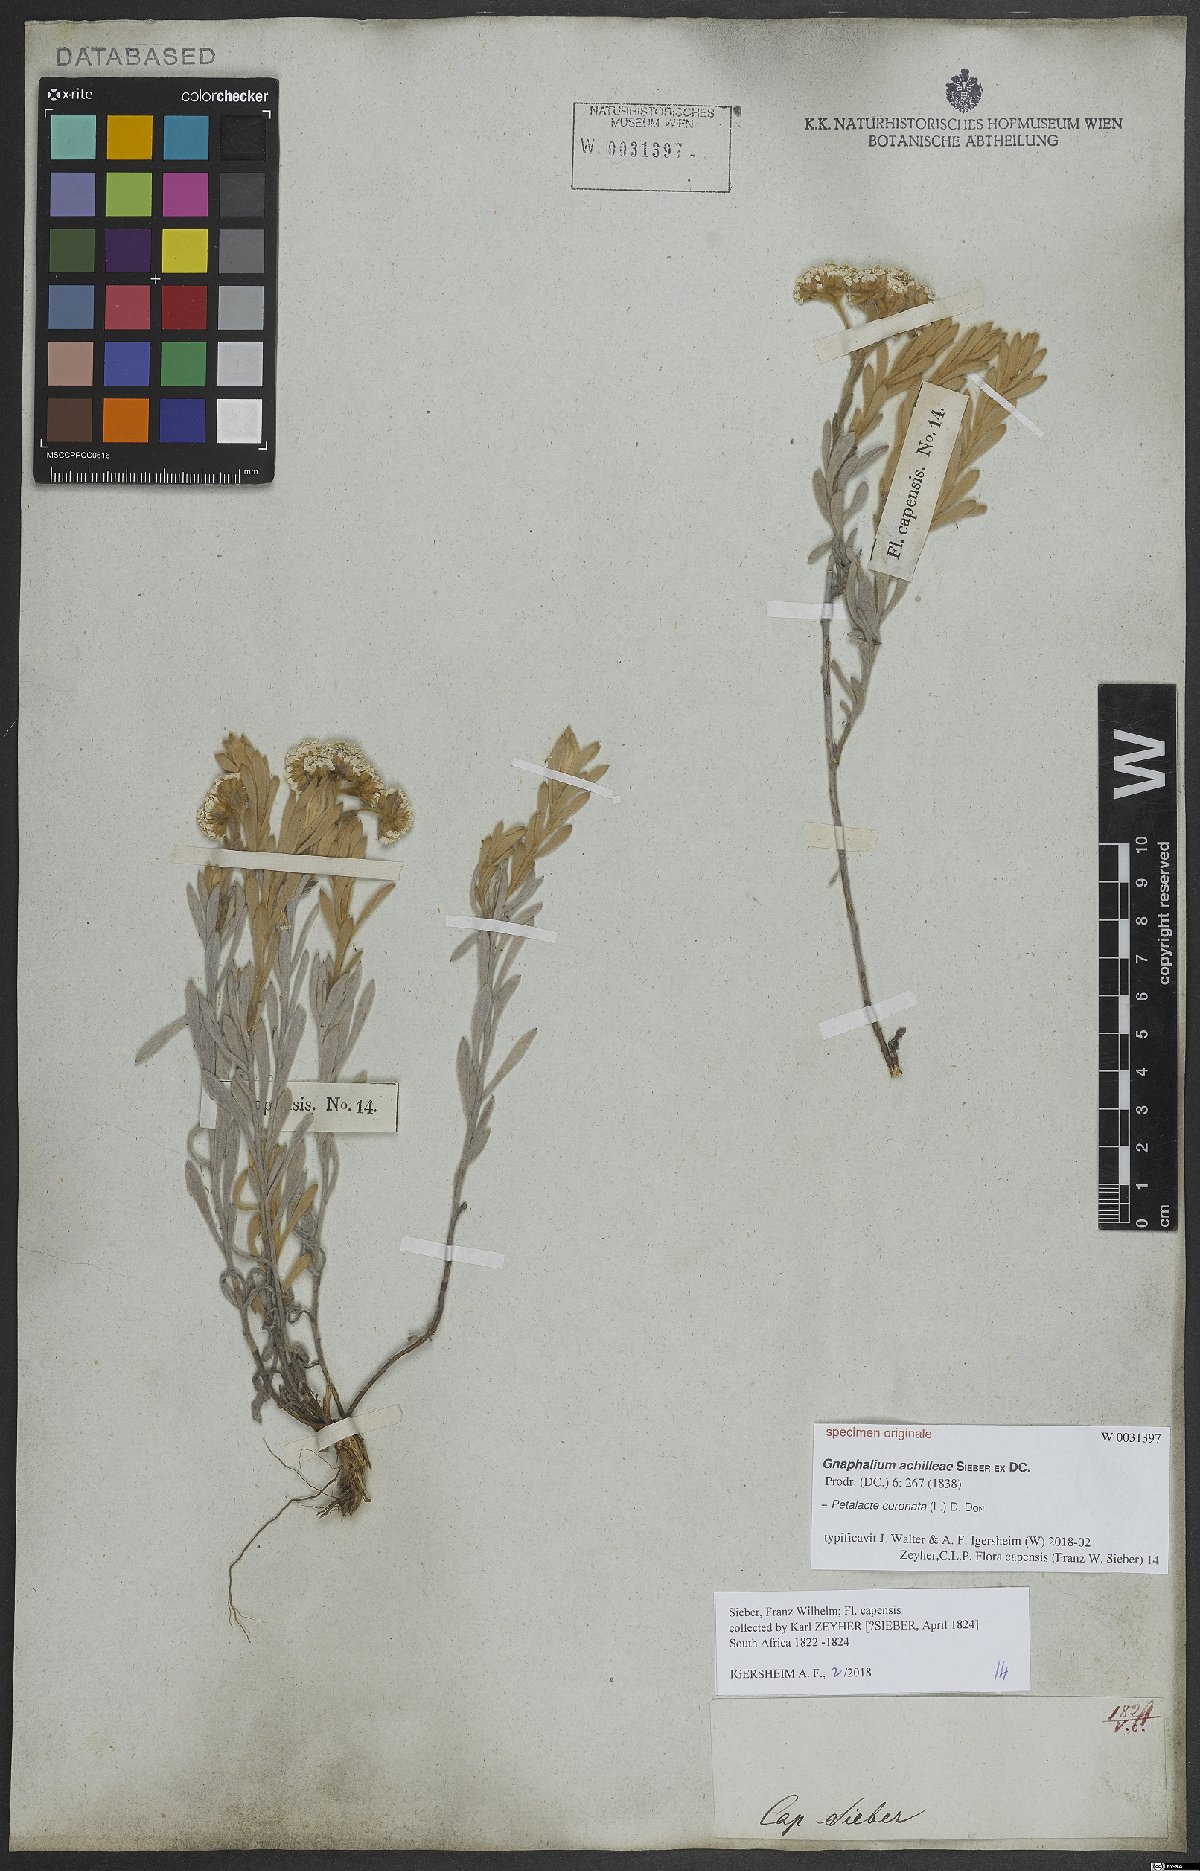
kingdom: Plantae
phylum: Tracheophyta
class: Magnoliopsida
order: Asterales
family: Asteraceae
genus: Petalacte
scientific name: Petalacte coronata
